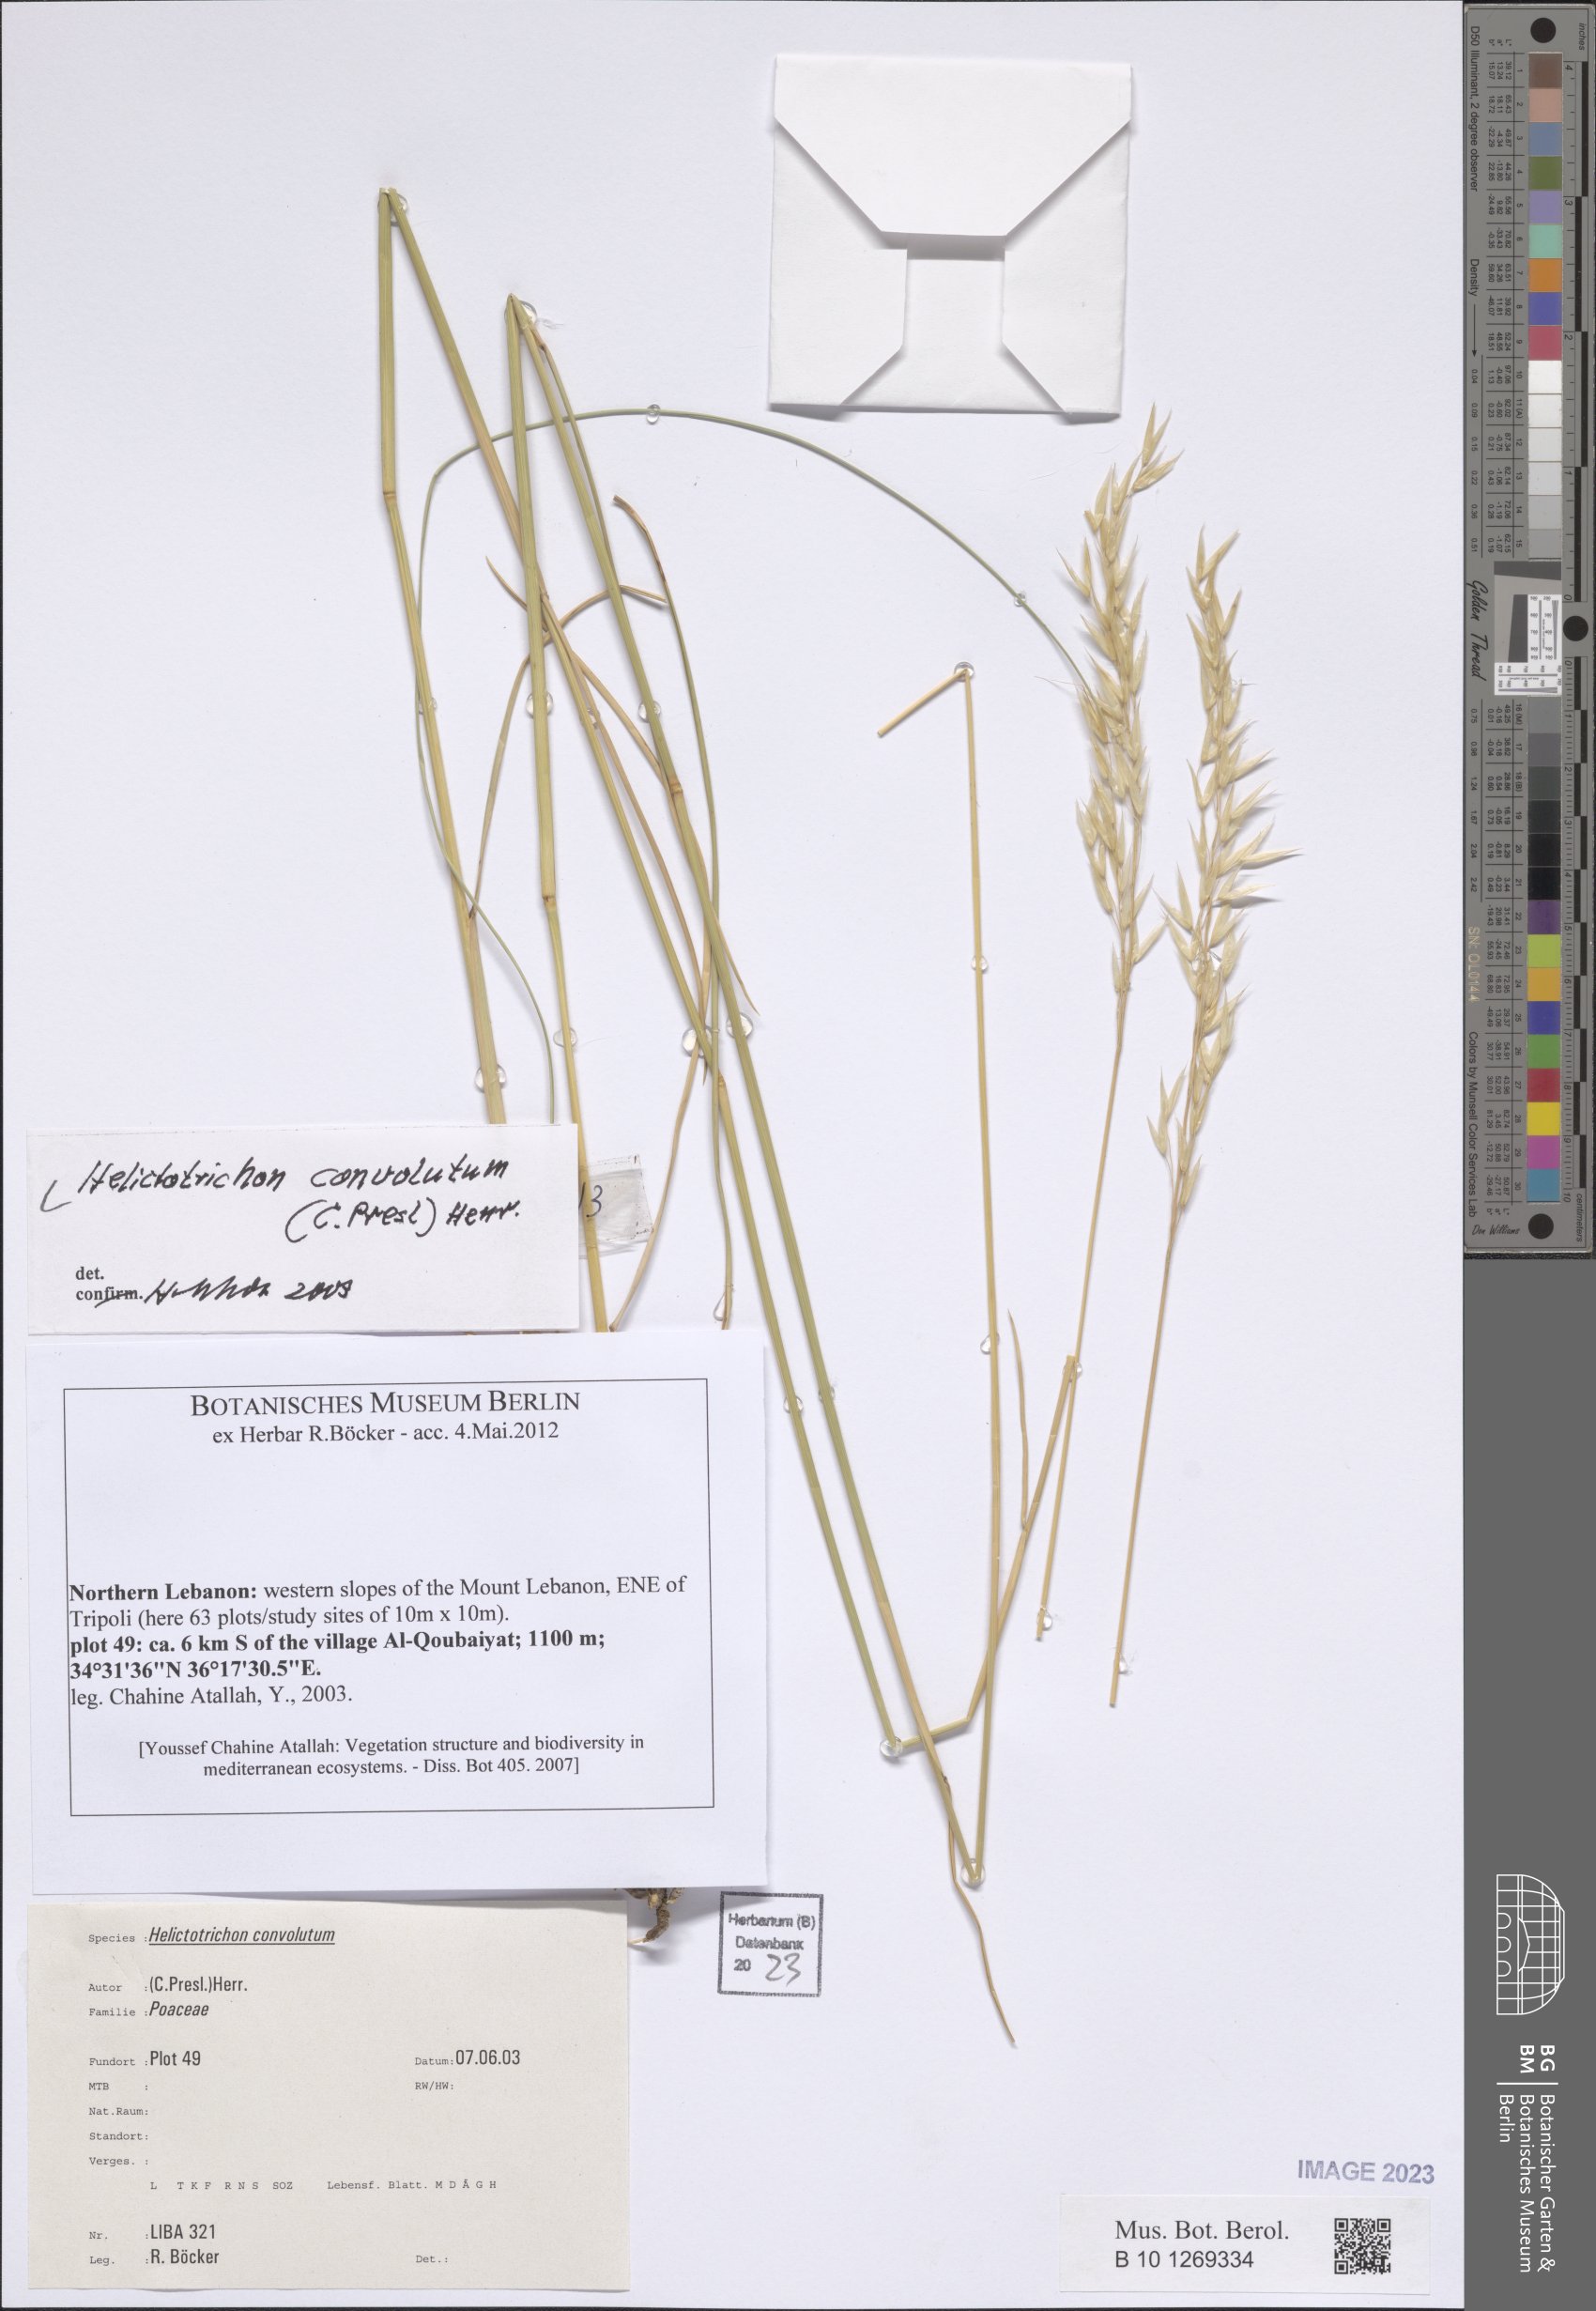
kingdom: Plantae
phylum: Tracheophyta
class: Liliopsida
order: Poales
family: Poaceae
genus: Helictotrichon
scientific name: Helictotrichon convolutum
